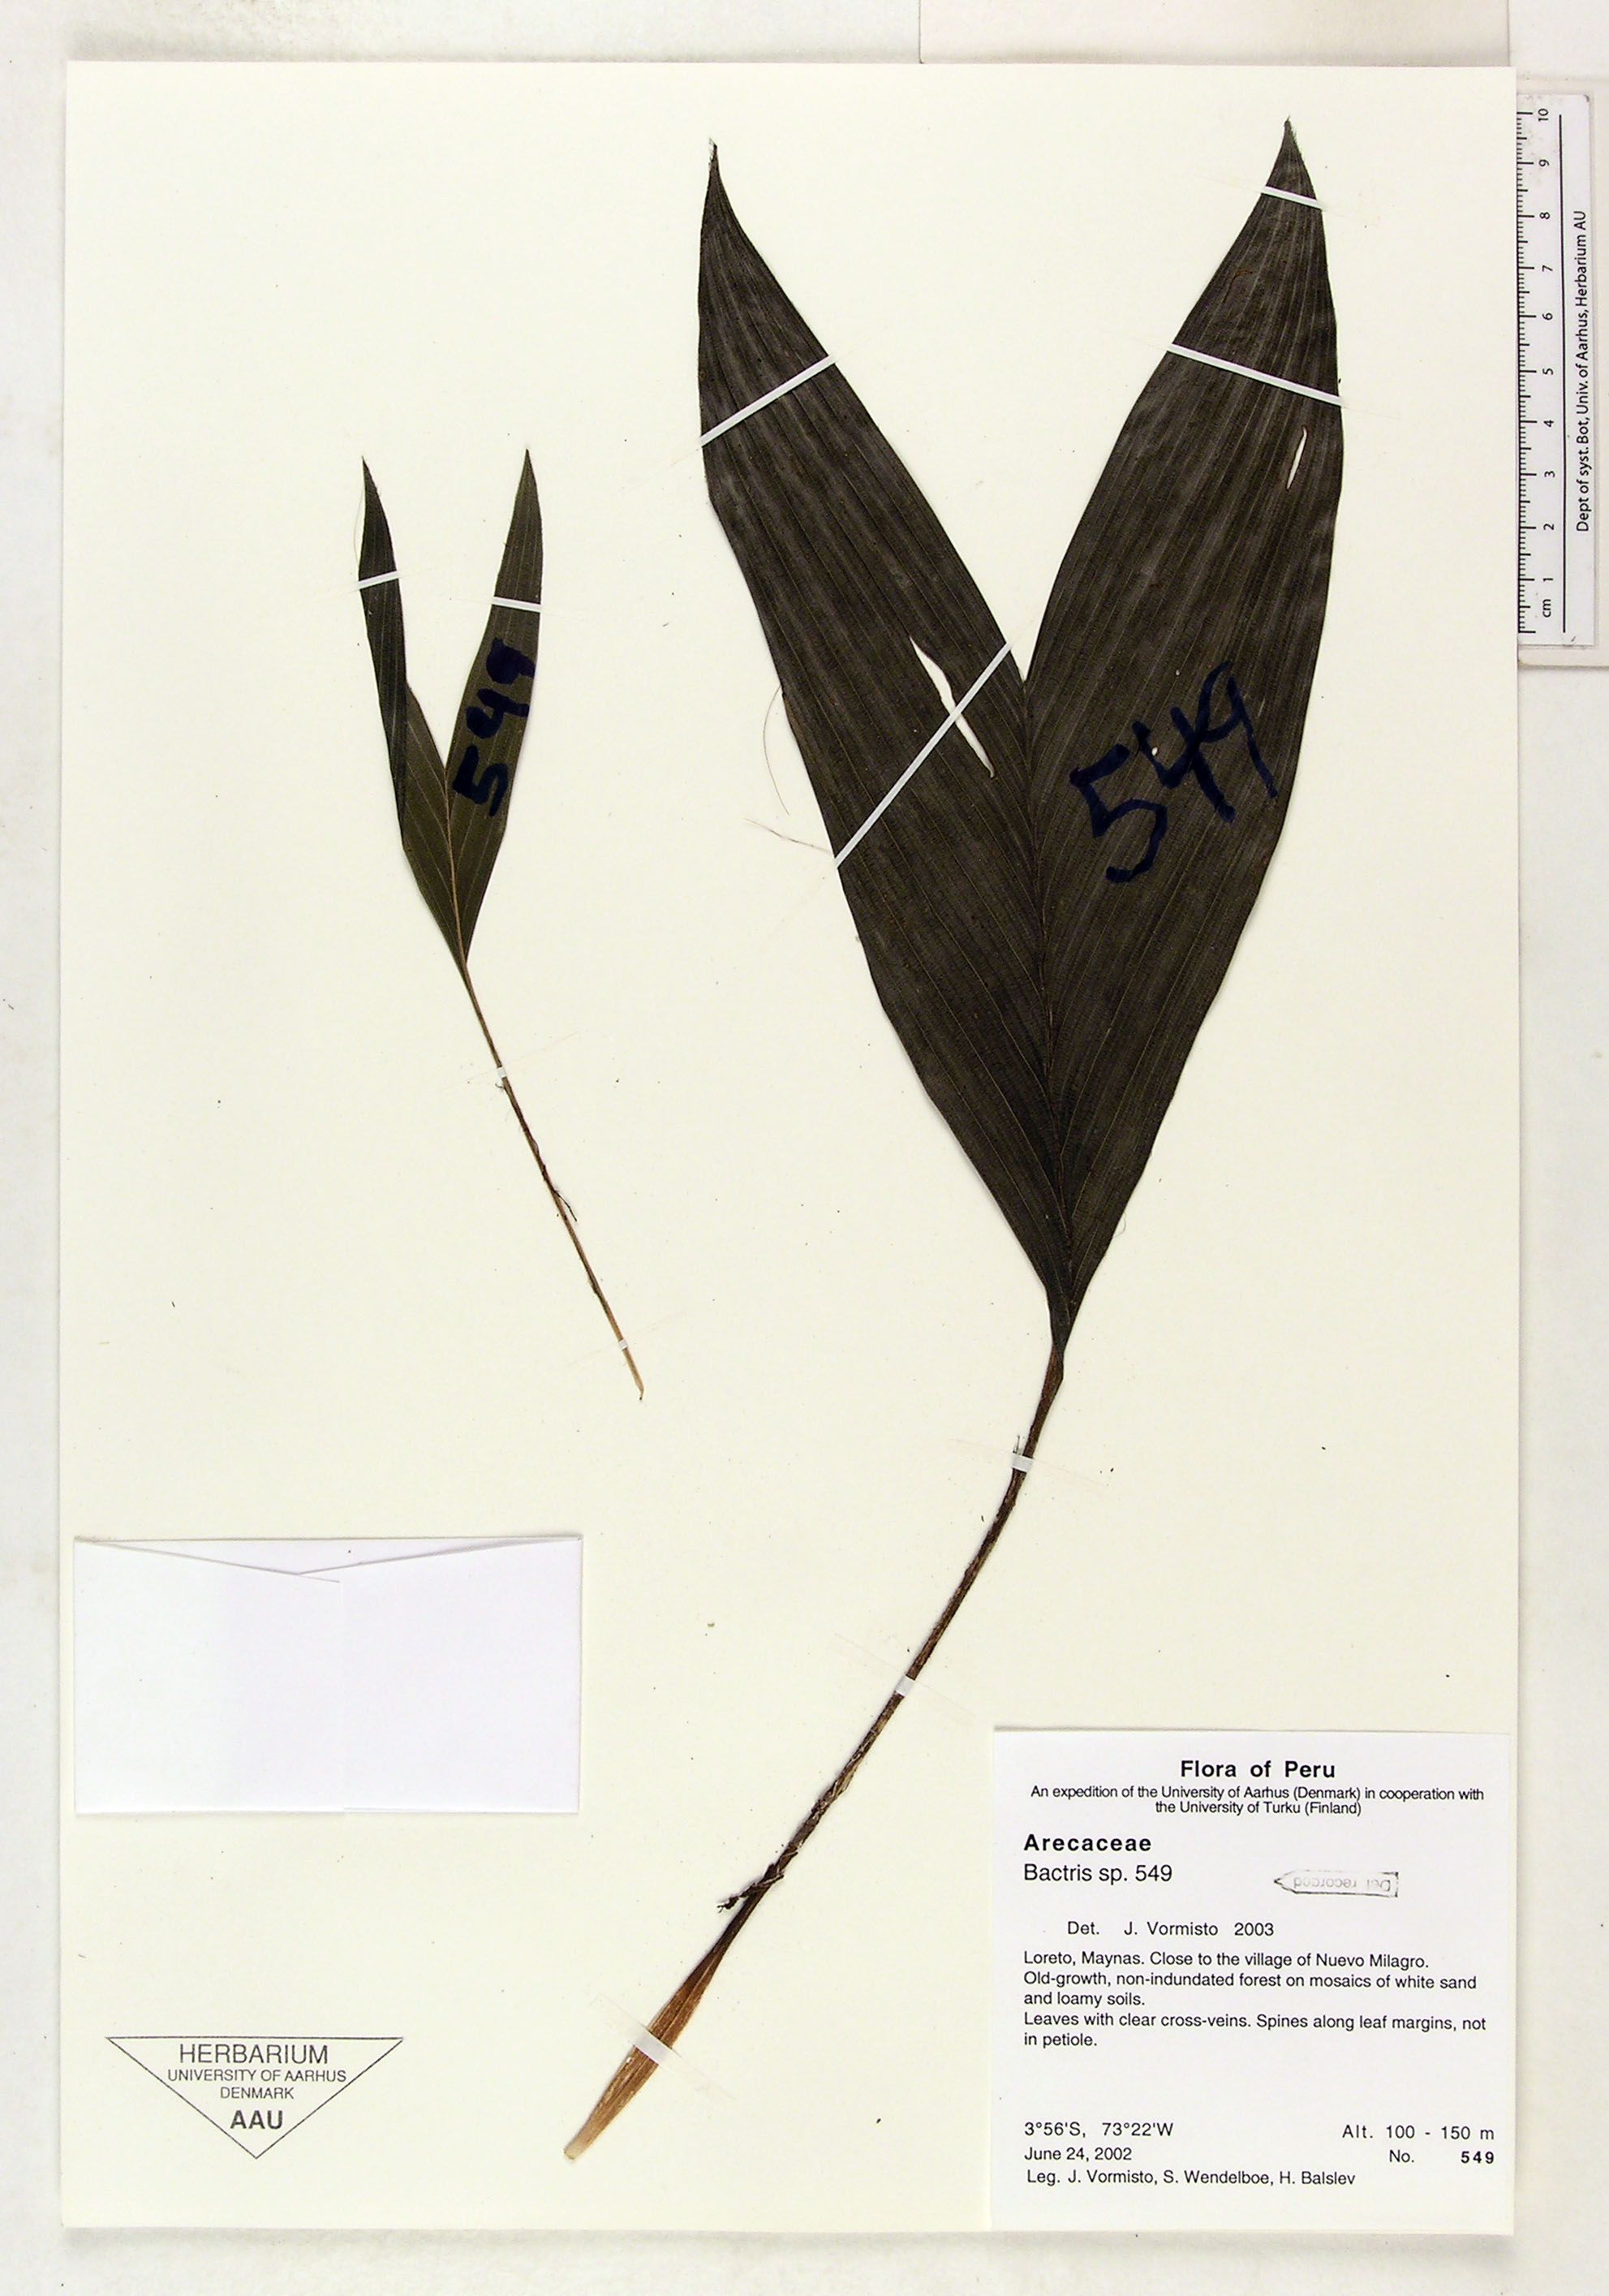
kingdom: Plantae
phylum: Tracheophyta
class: Liliopsida
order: Arecales
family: Arecaceae
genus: Bactris
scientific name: Bactris
